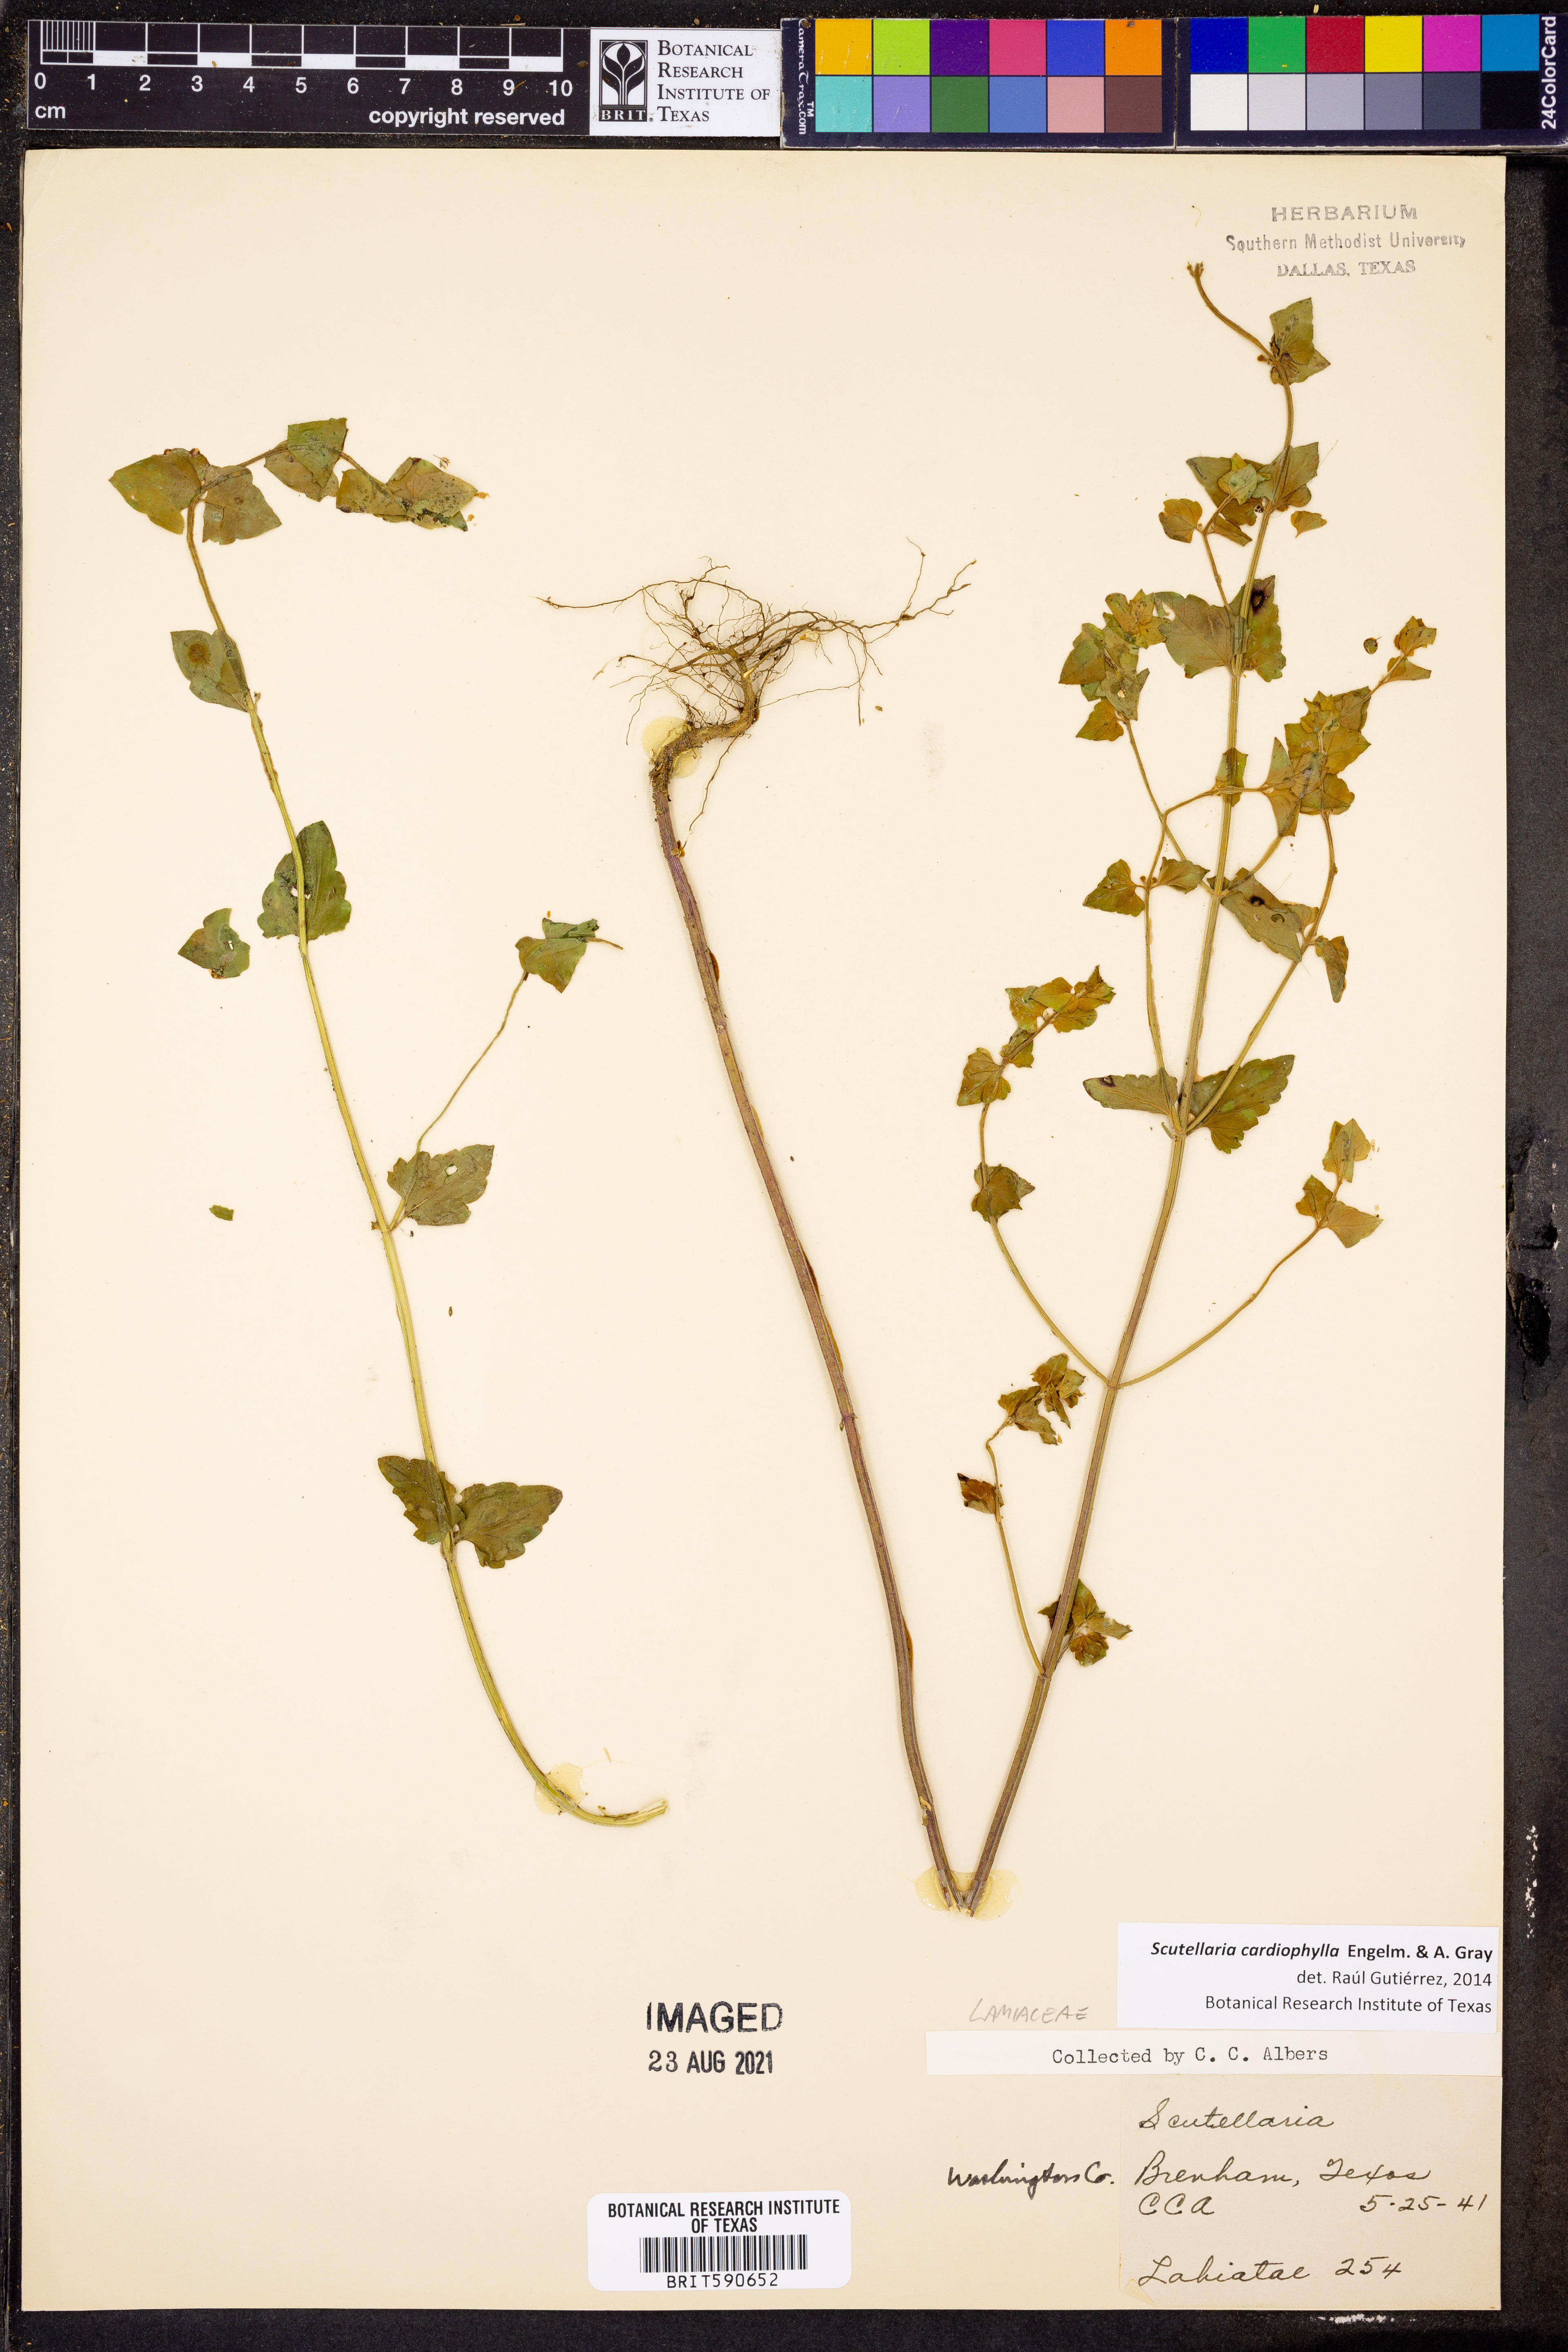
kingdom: Plantae
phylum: Tracheophyta
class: Magnoliopsida
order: Lamiales
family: Lamiaceae
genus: Scutellaria
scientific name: Scutellaria cardiophylla
